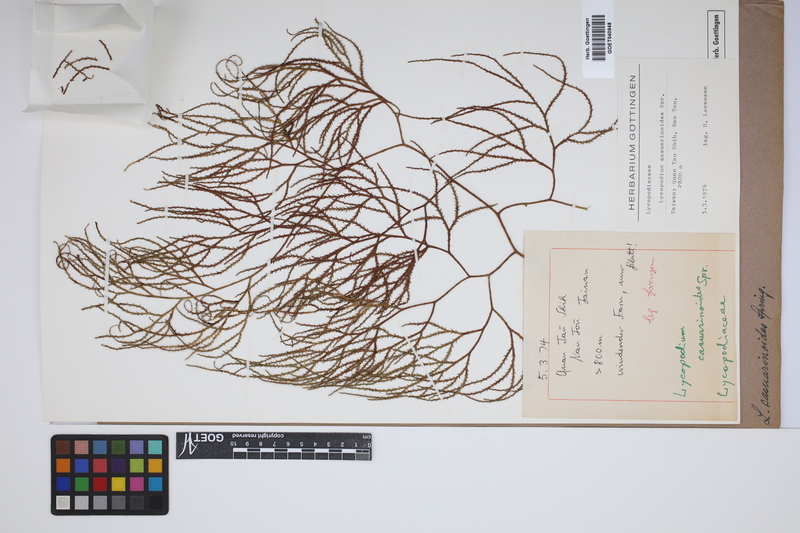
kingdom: Plantae
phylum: Tracheophyta
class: Lycopodiopsida
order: Lycopodiales
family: Lycopodiaceae
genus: Lycopodiastrum
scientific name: Lycopodiastrum casuarinoides
